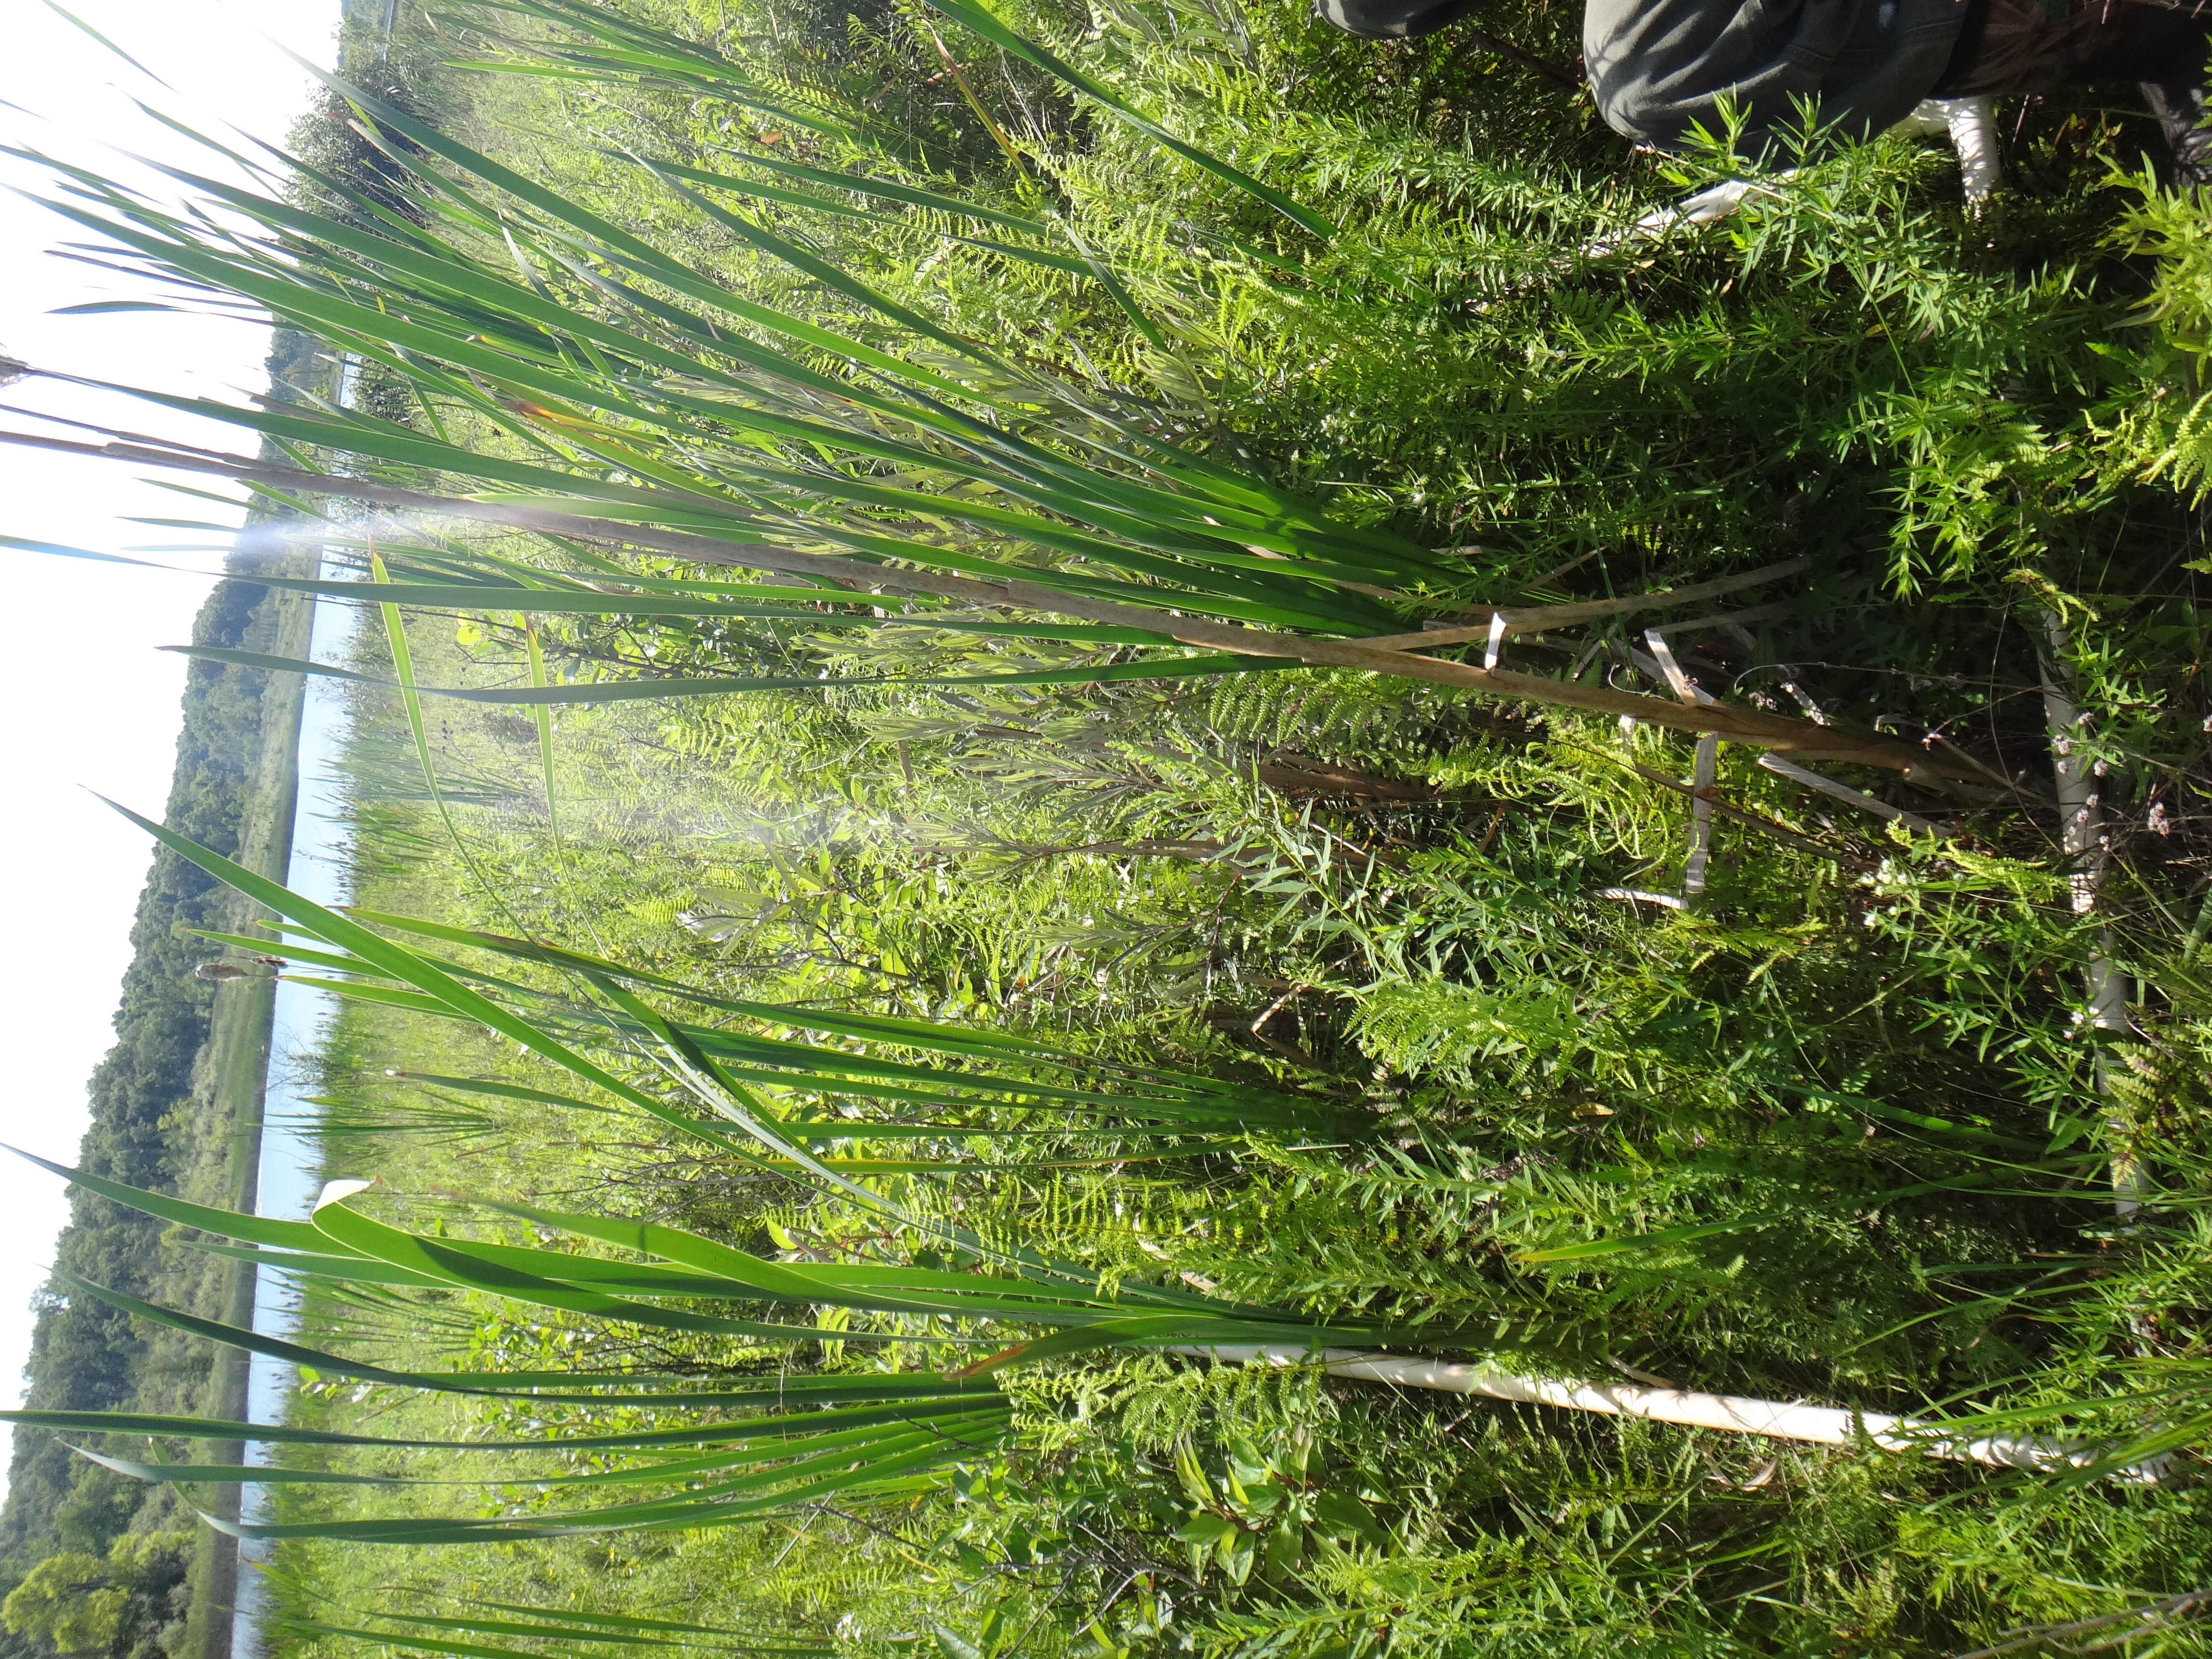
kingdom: Plantae
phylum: Tracheophyta
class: Liliopsida
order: Poales
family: Typhaceae
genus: Typha
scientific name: Typha latifolia
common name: Broadleaf cattail
